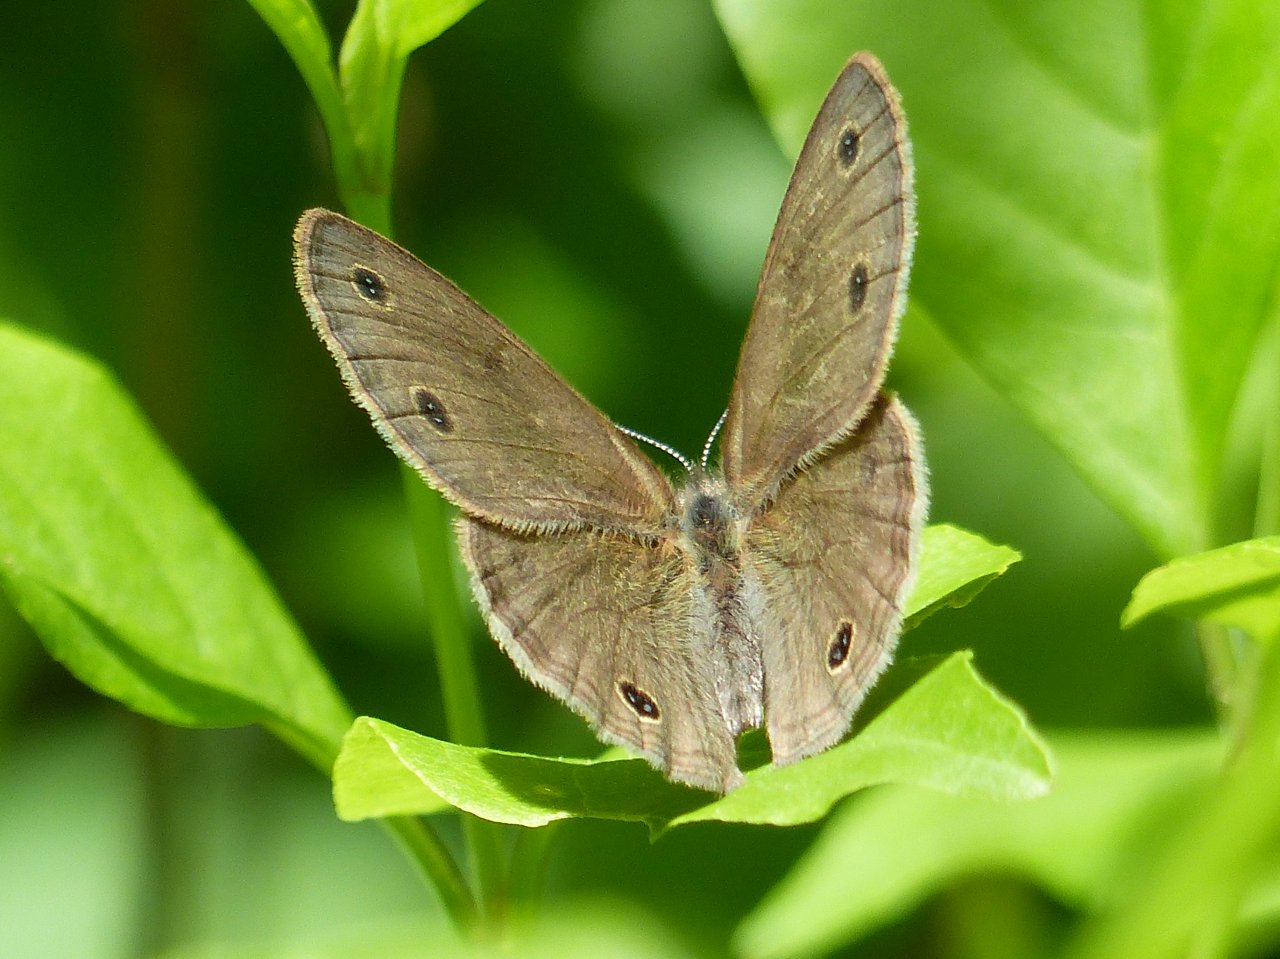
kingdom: Animalia
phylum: Arthropoda
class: Insecta
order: Lepidoptera
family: Nymphalidae
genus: Euptychia
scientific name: Euptychia cymela
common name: Little Wood Satyr
